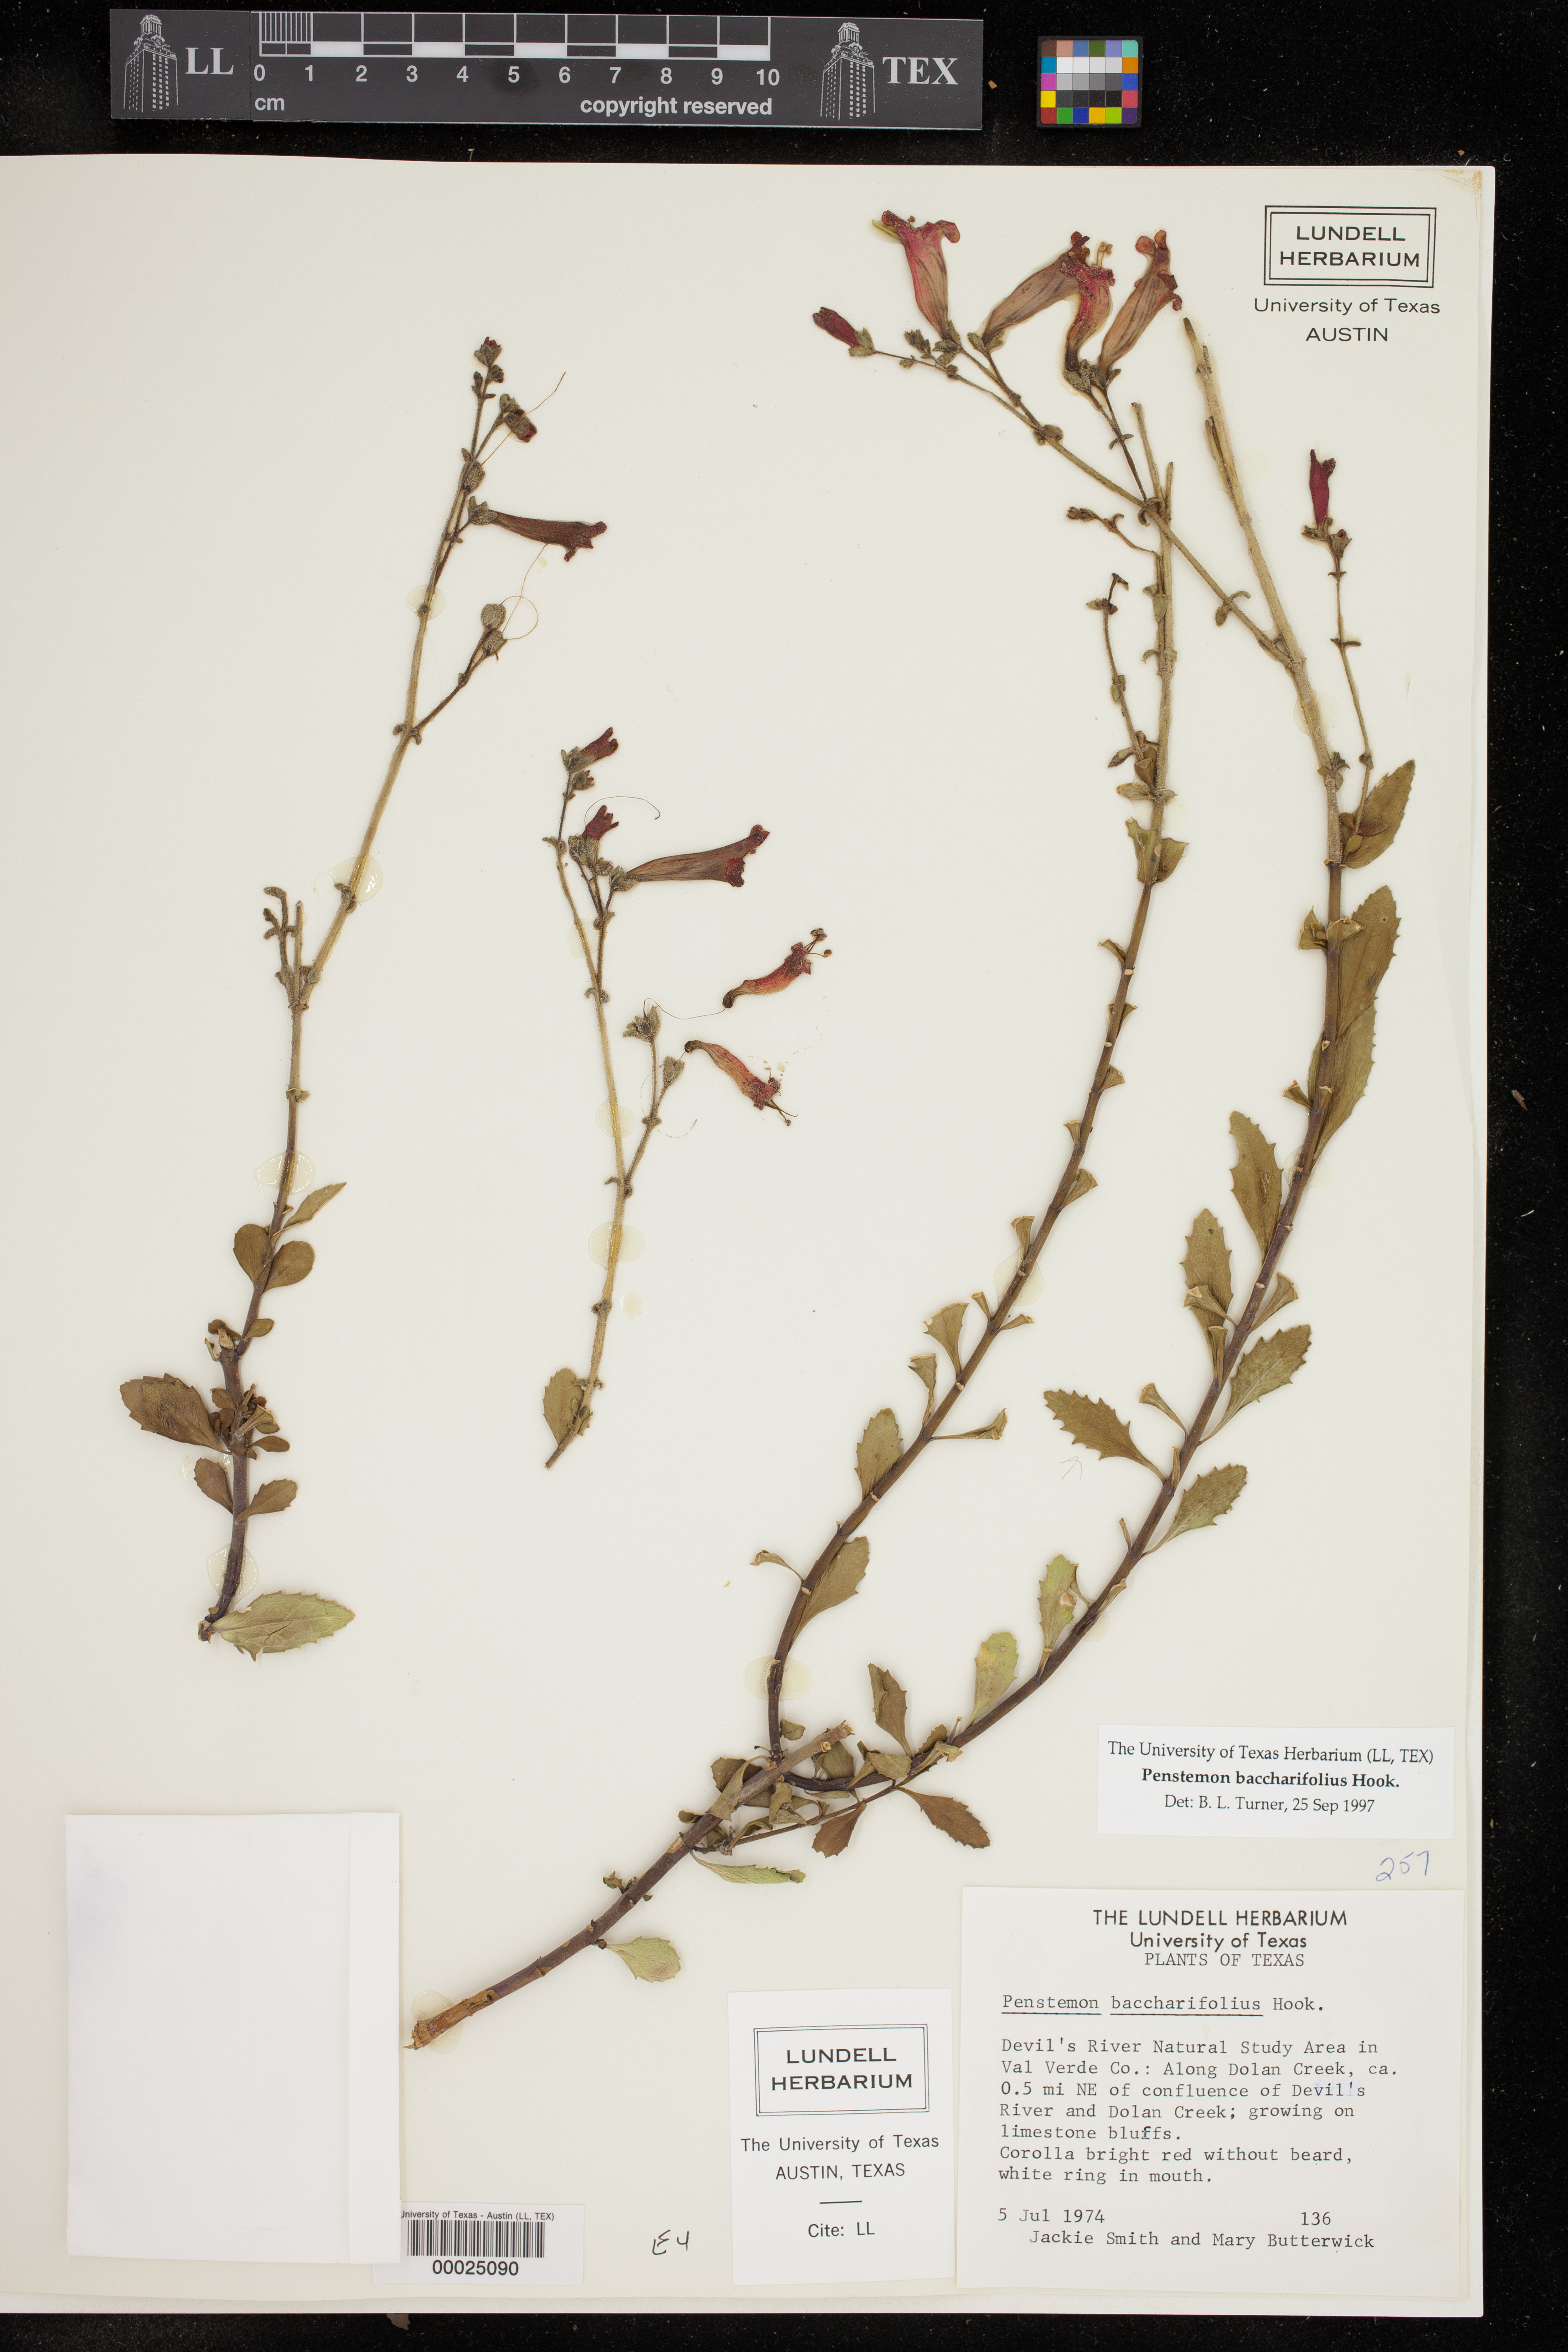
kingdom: Plantae
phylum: Tracheophyta
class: Magnoliopsida
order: Lamiales
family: Plantaginaceae
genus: Penstemon
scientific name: Penstemon baccharifolius
